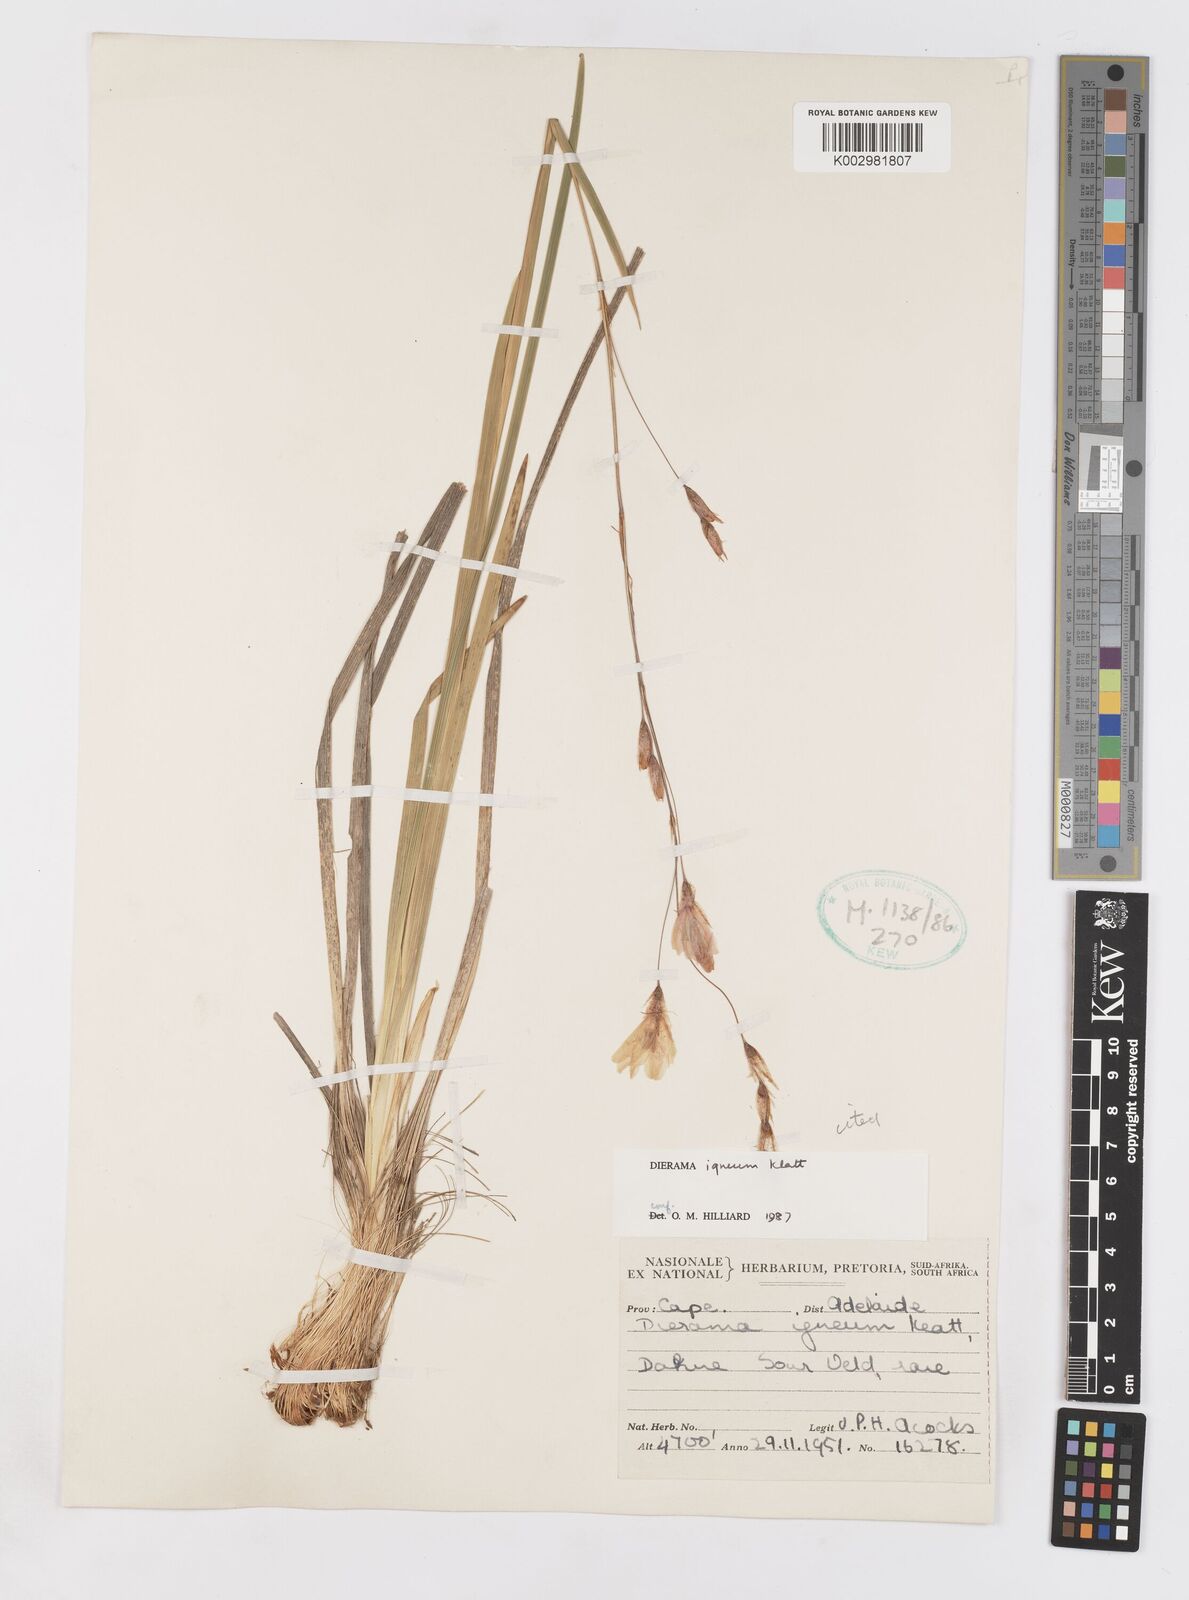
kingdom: Plantae
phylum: Tracheophyta
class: Liliopsida
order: Asparagales
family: Iridaceae
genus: Dierama
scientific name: Dierama igneum
